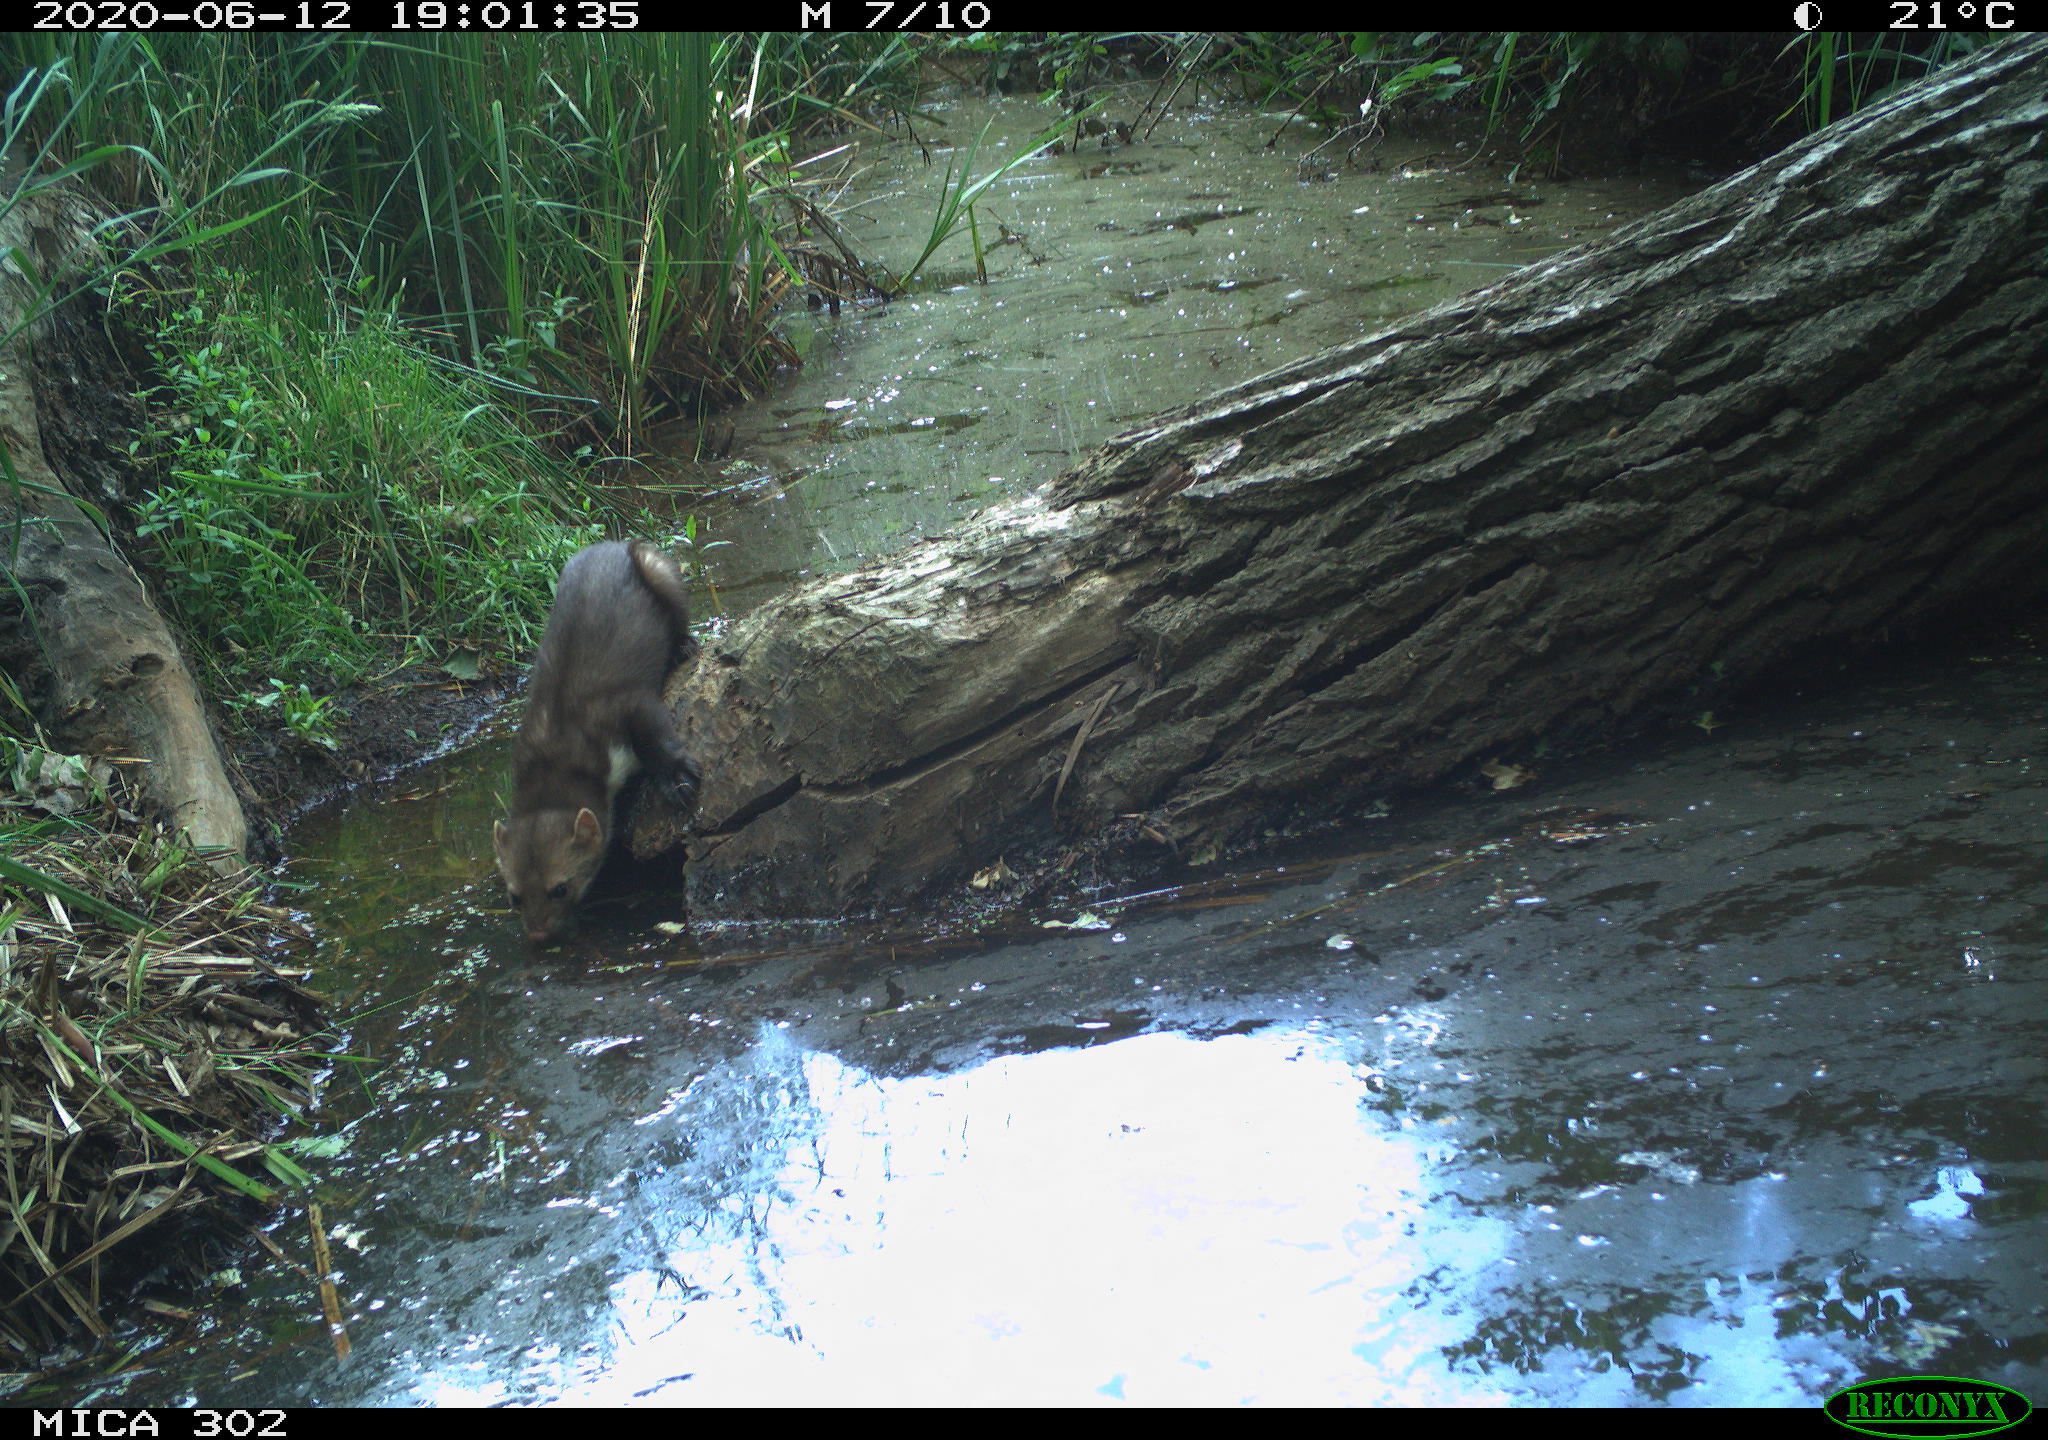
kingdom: Animalia
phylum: Chordata
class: Mammalia
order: Carnivora
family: Mustelidae
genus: Martes
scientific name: Martes foina
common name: Beech marten
